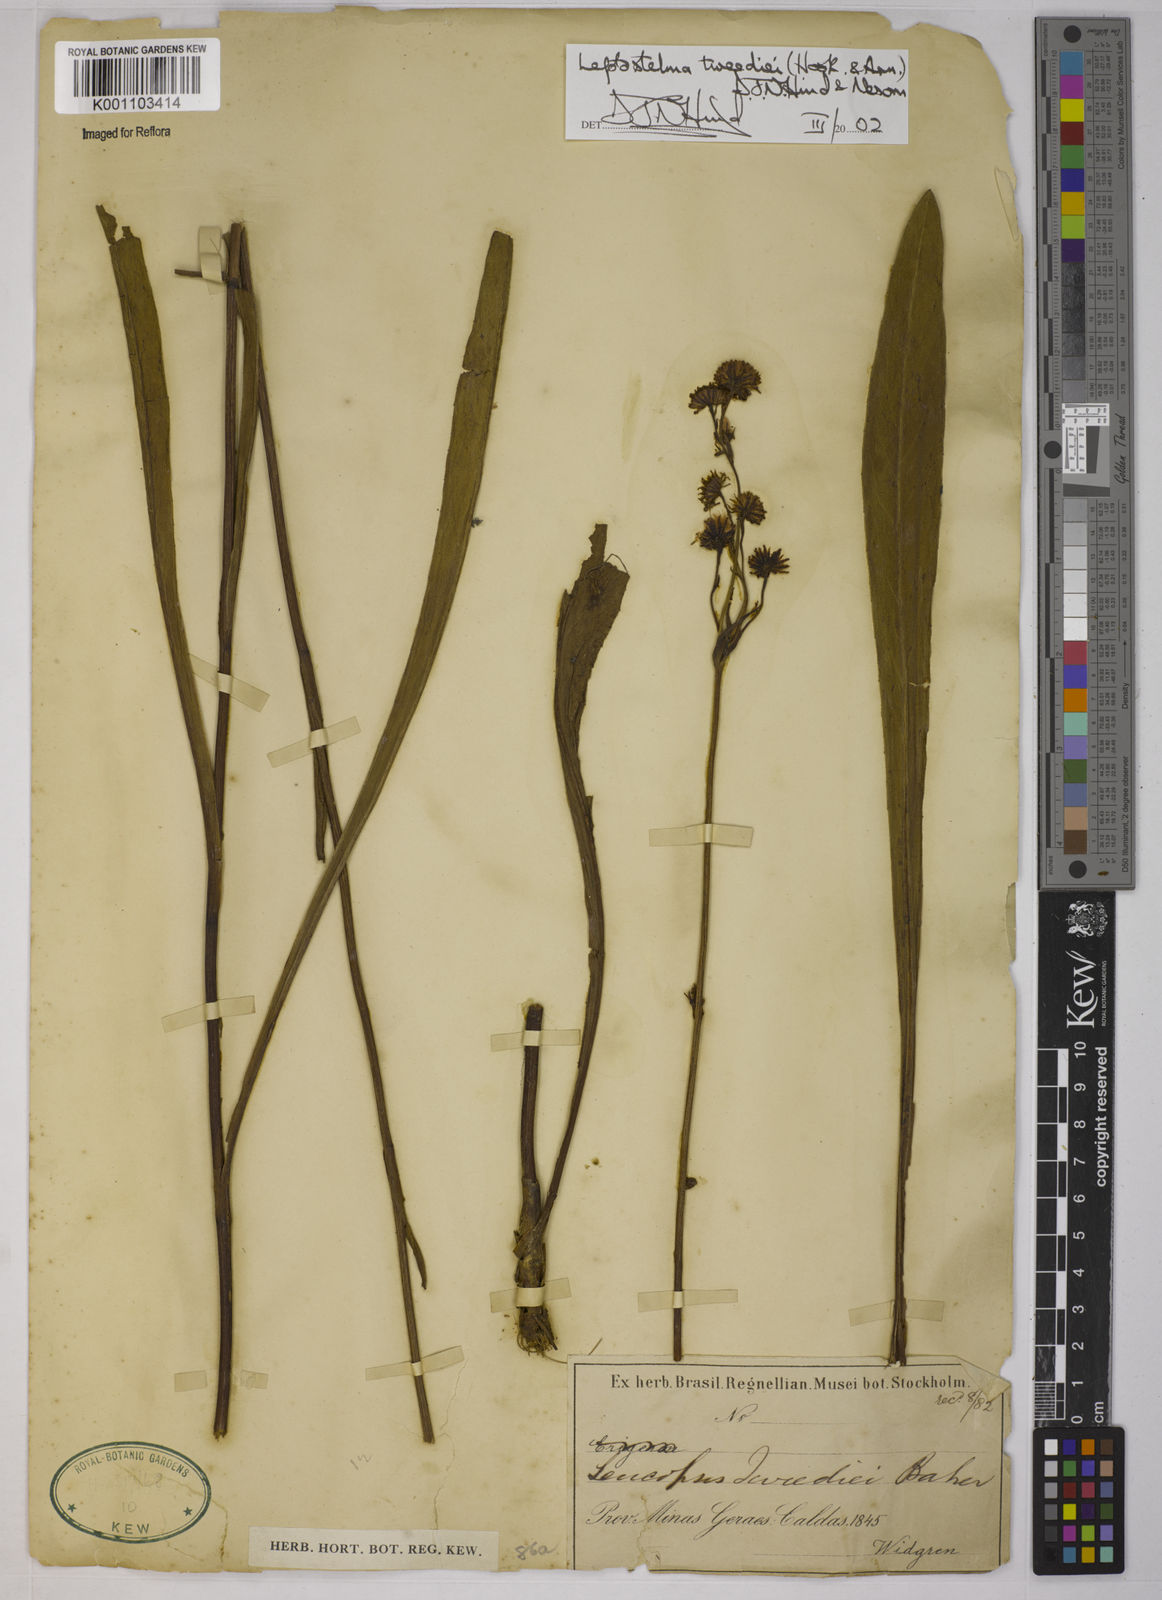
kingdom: Plantae
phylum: Tracheophyta
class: Magnoliopsida
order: Asterales
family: Asteraceae
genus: Leptostelma
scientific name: Leptostelma tweediei
